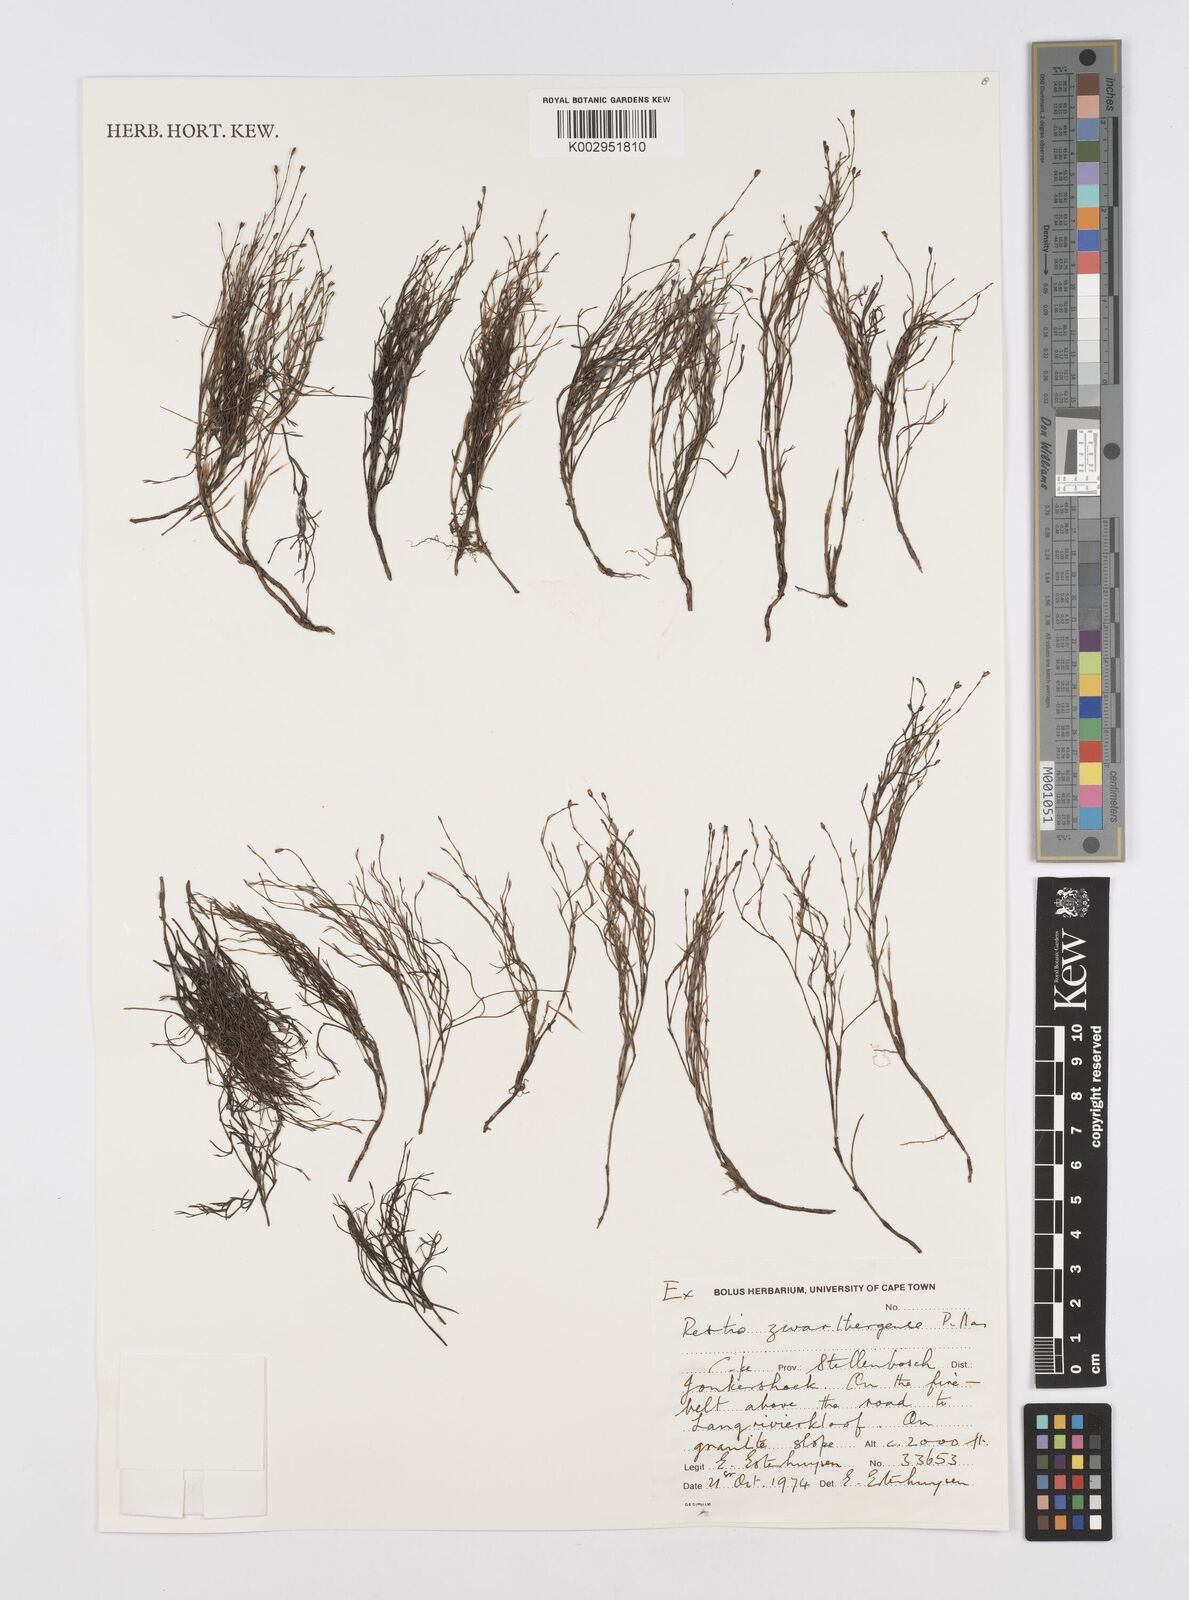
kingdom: Plantae
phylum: Tracheophyta
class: Liliopsida
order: Poales
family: Restionaceae
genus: Restio
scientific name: Restio zwartbergensis
